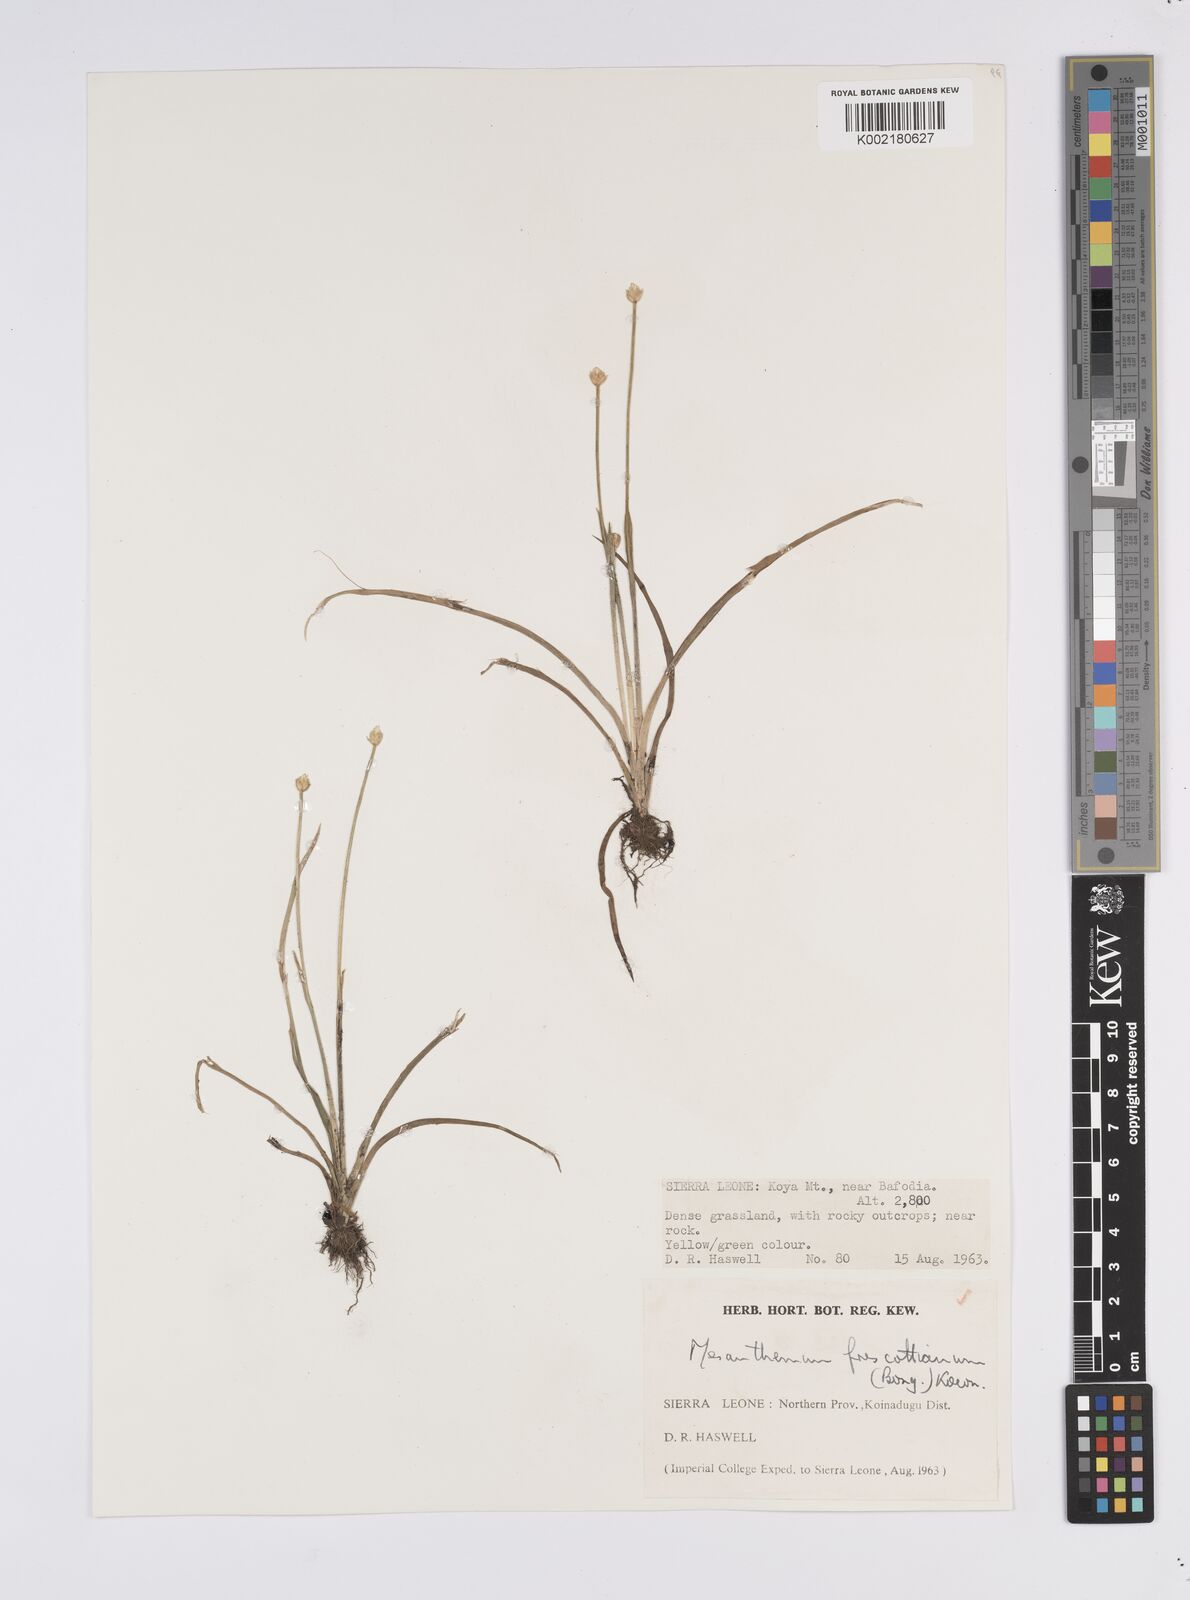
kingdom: Plantae
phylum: Tracheophyta
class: Liliopsida
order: Poales
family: Eriocaulaceae
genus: Mesanthemum
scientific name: Mesanthemum prescottianum
